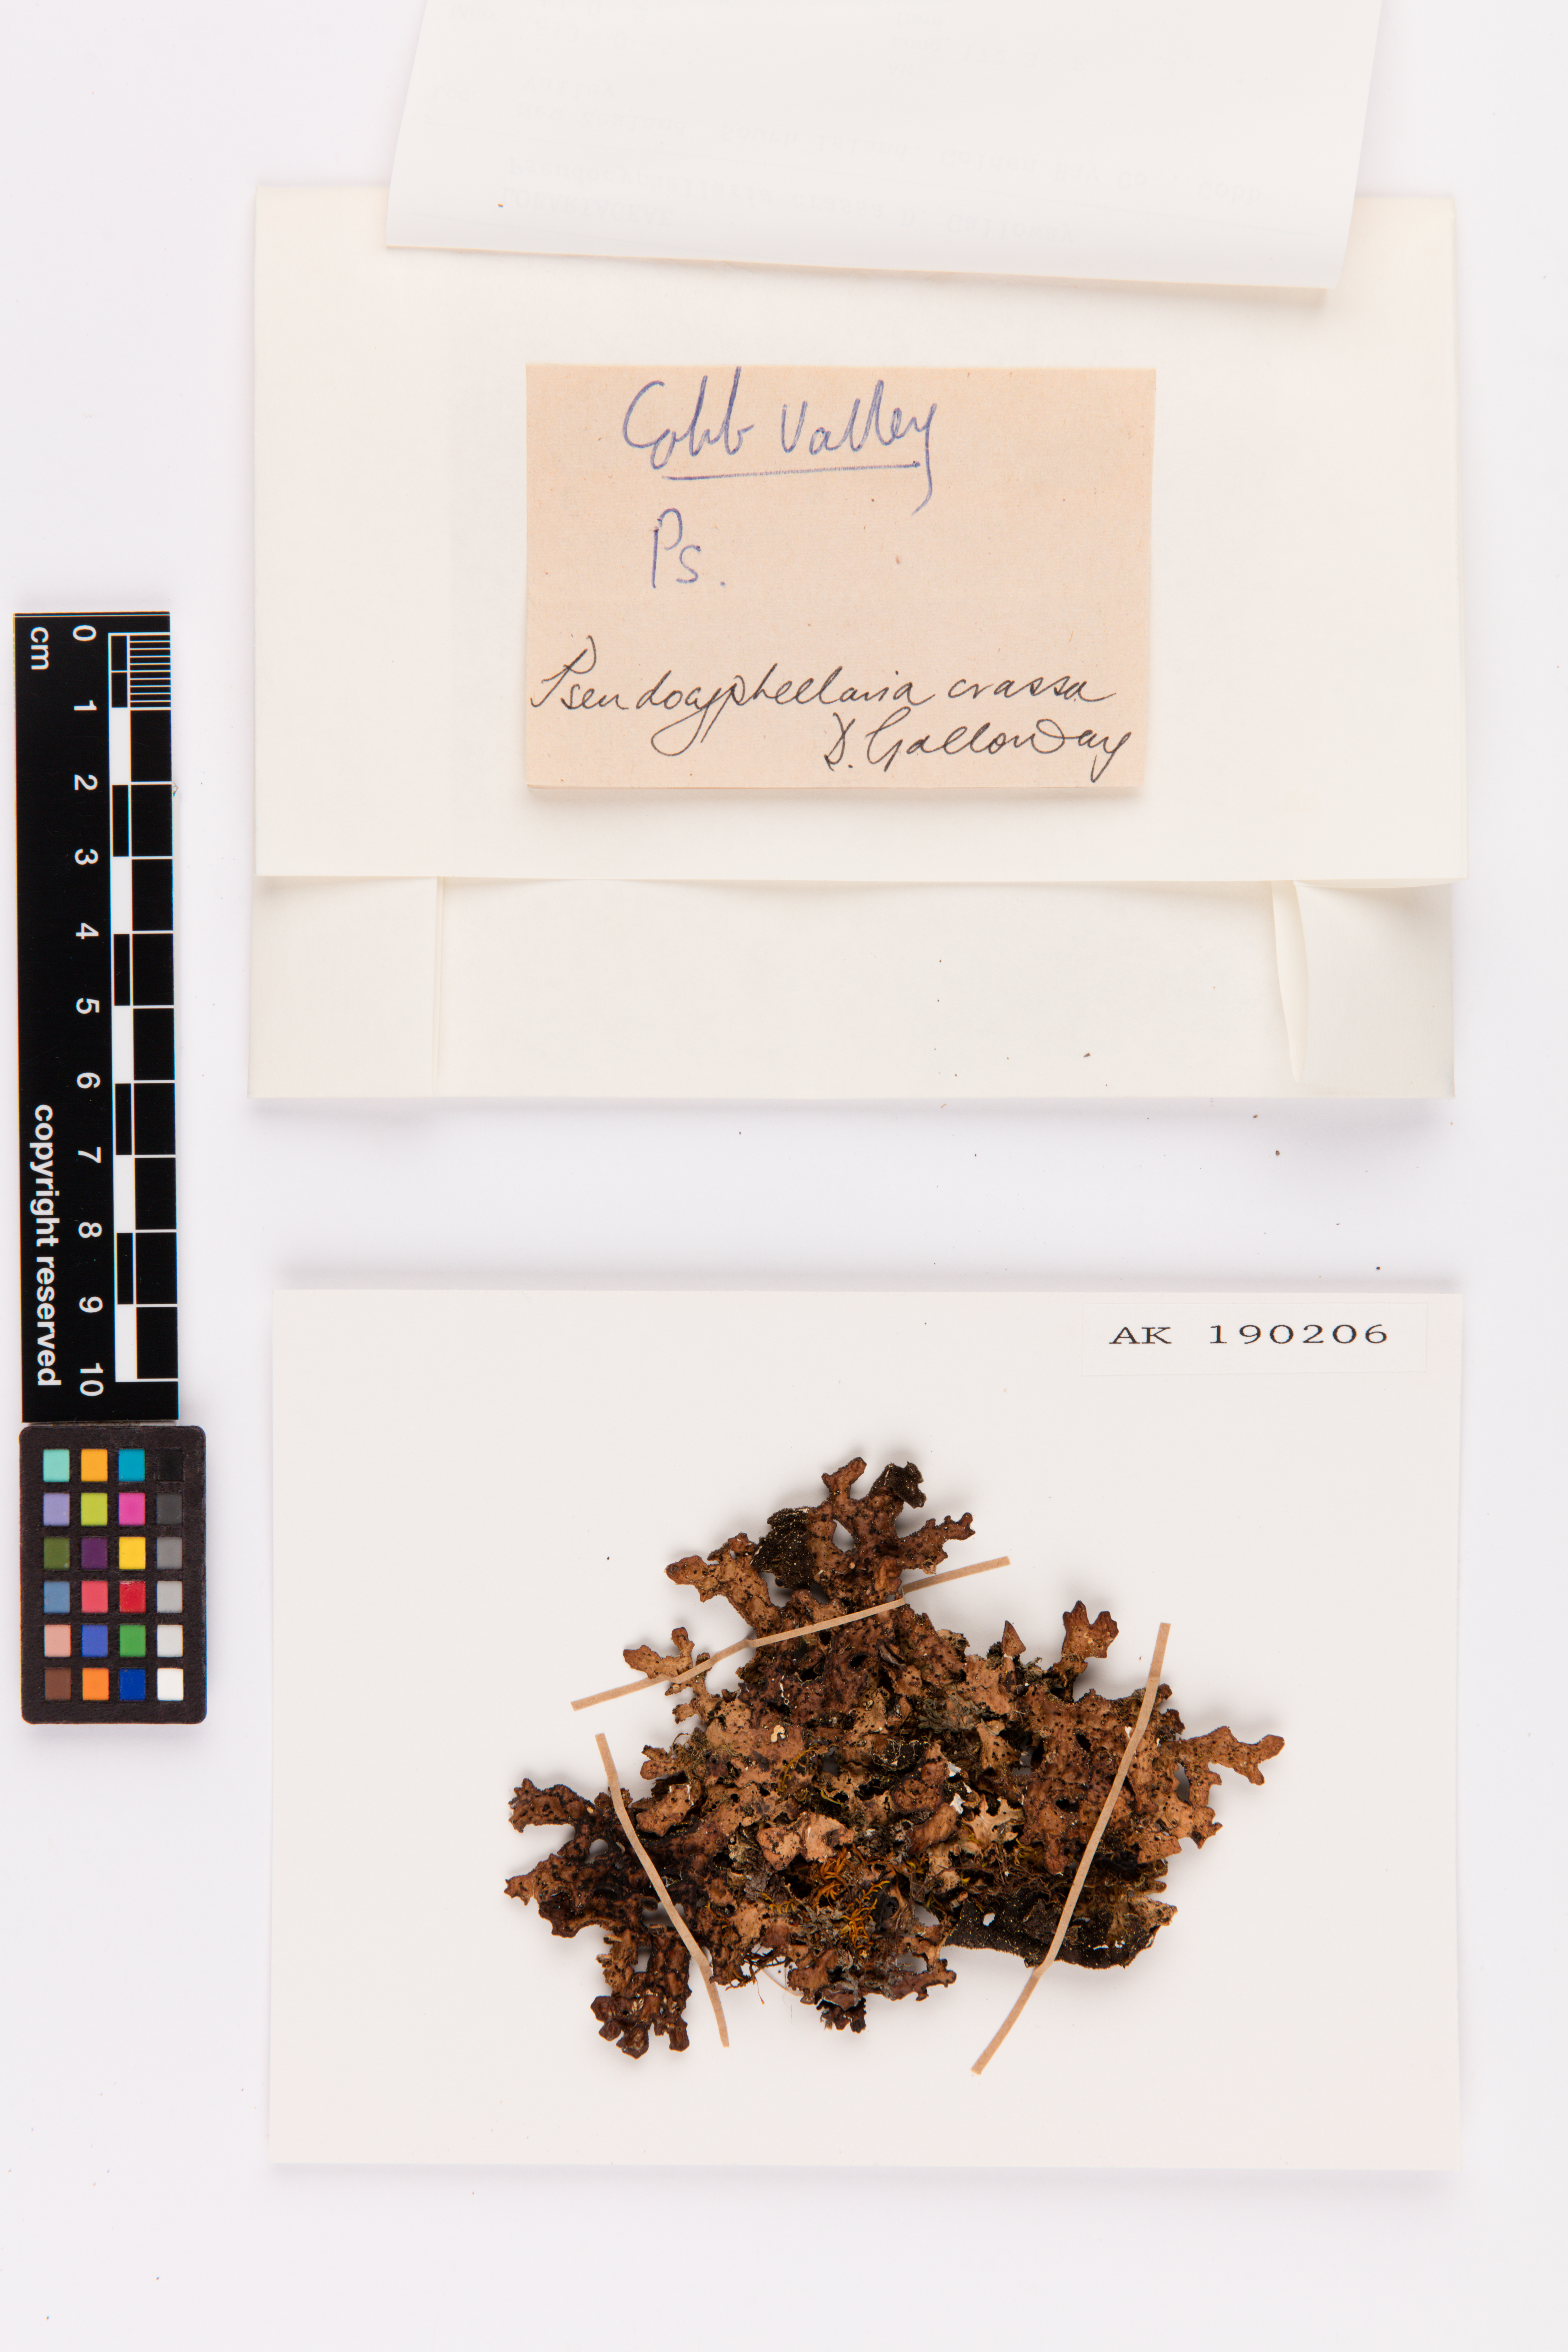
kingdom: Fungi
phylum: Ascomycota
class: Lecanoromycetes
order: Peltigerales
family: Lobariaceae
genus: Pseudocyphellaria
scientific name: Pseudocyphellaria crassa
